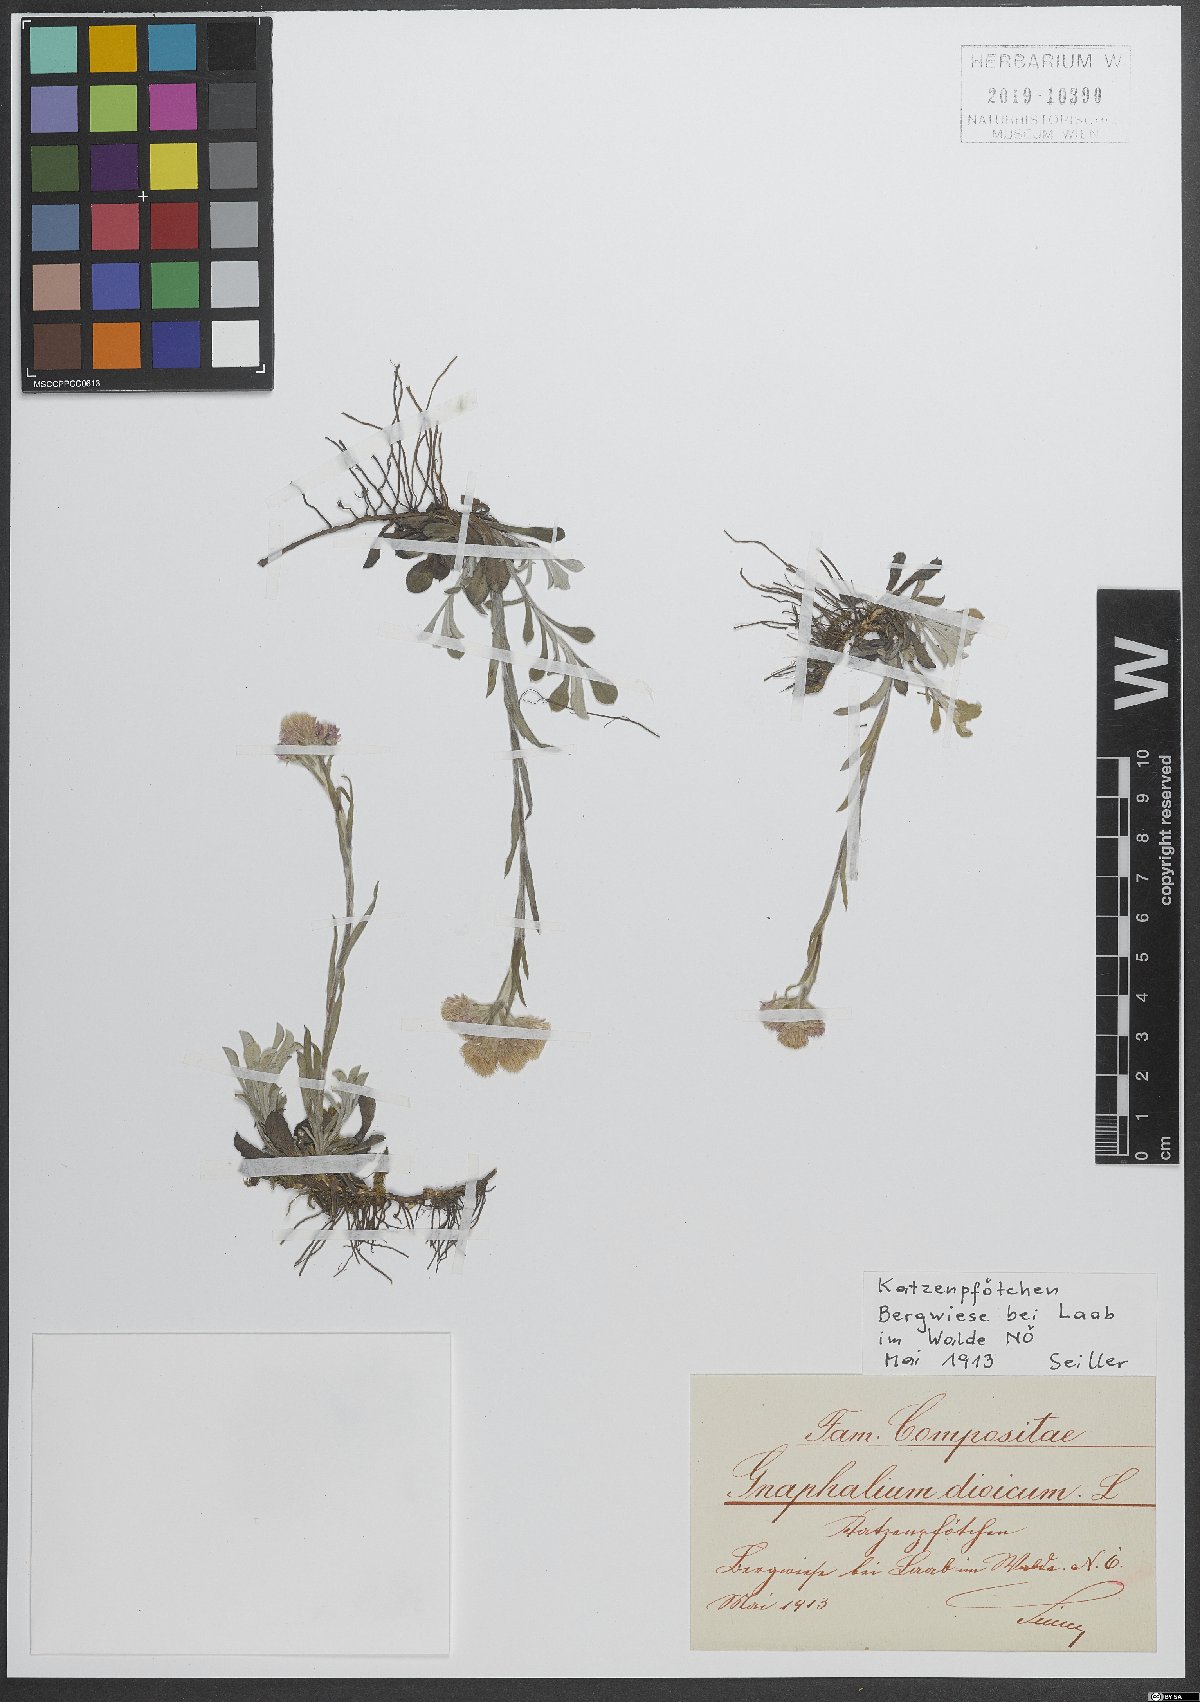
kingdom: Plantae
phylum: Tracheophyta
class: Magnoliopsida
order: Asterales
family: Asteraceae
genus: Antennaria
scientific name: Antennaria dioica
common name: Mountain everlasting
